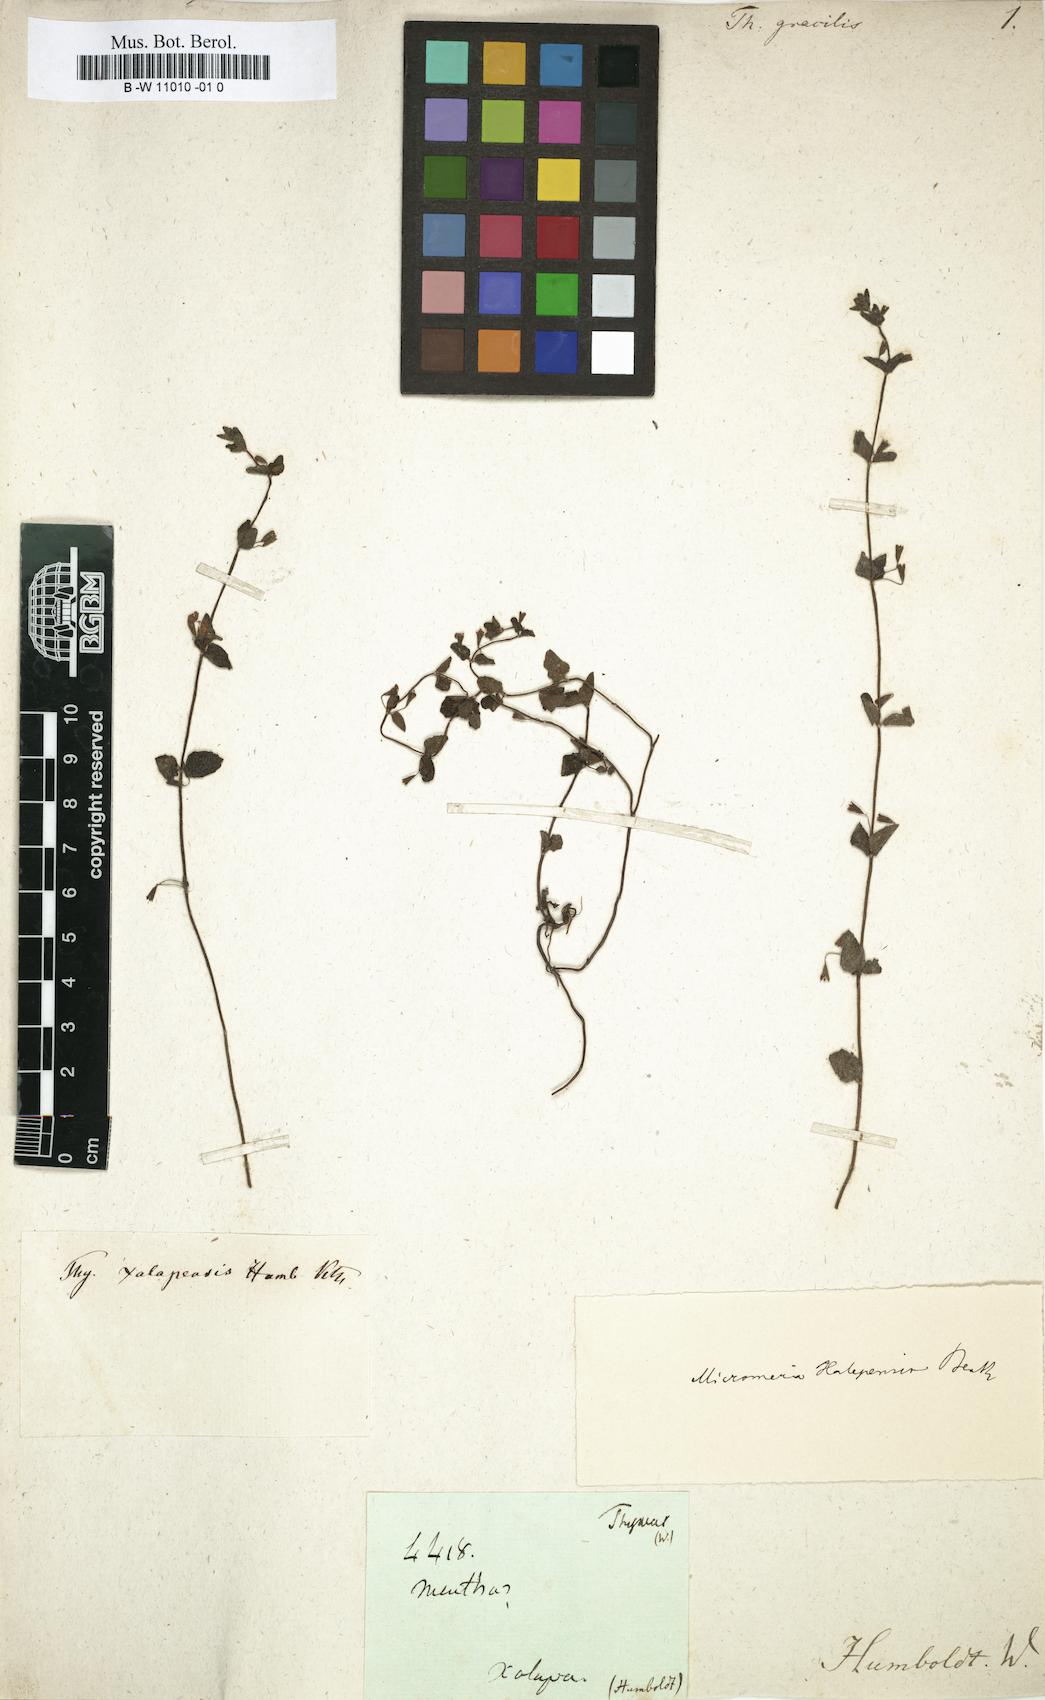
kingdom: Plantae
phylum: Tracheophyta
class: Magnoliopsida
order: Lamiales
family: Lamiaceae
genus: Clinopodium
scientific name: Clinopodium brownei
